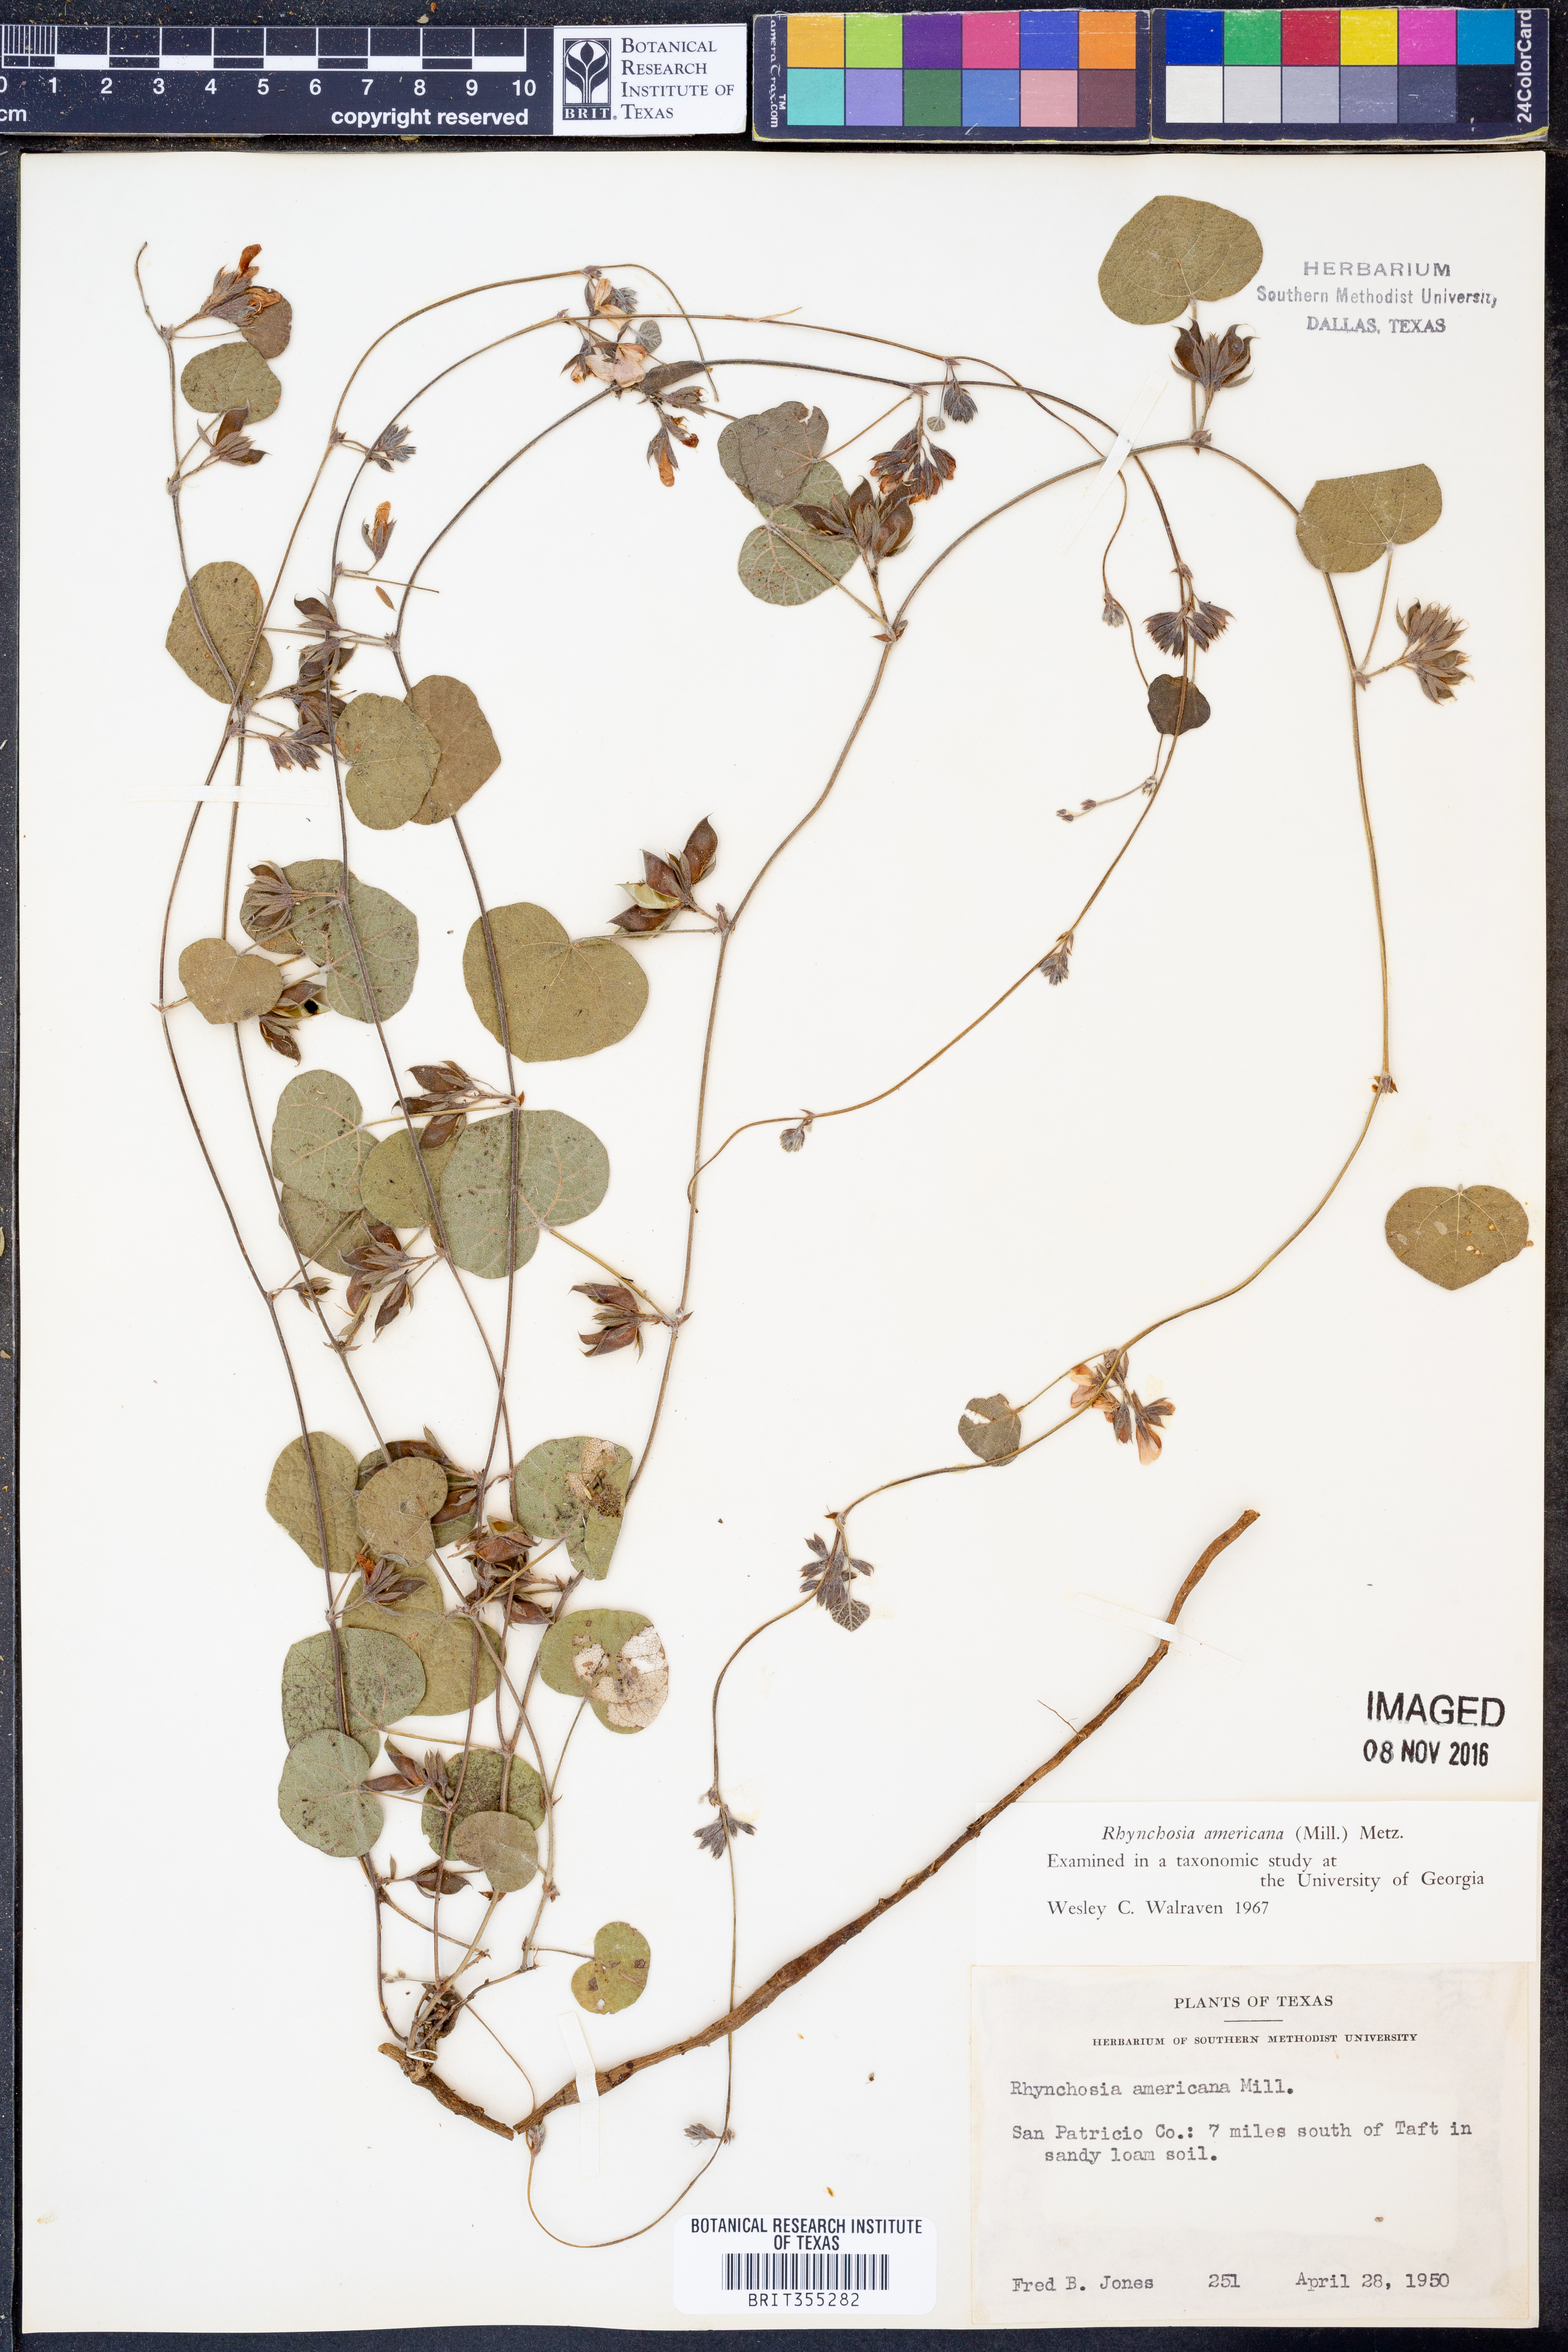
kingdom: Plantae
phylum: Tracheophyta
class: Magnoliopsida
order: Fabales
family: Fabaceae
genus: Rhynchosia
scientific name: Rhynchosia americana
